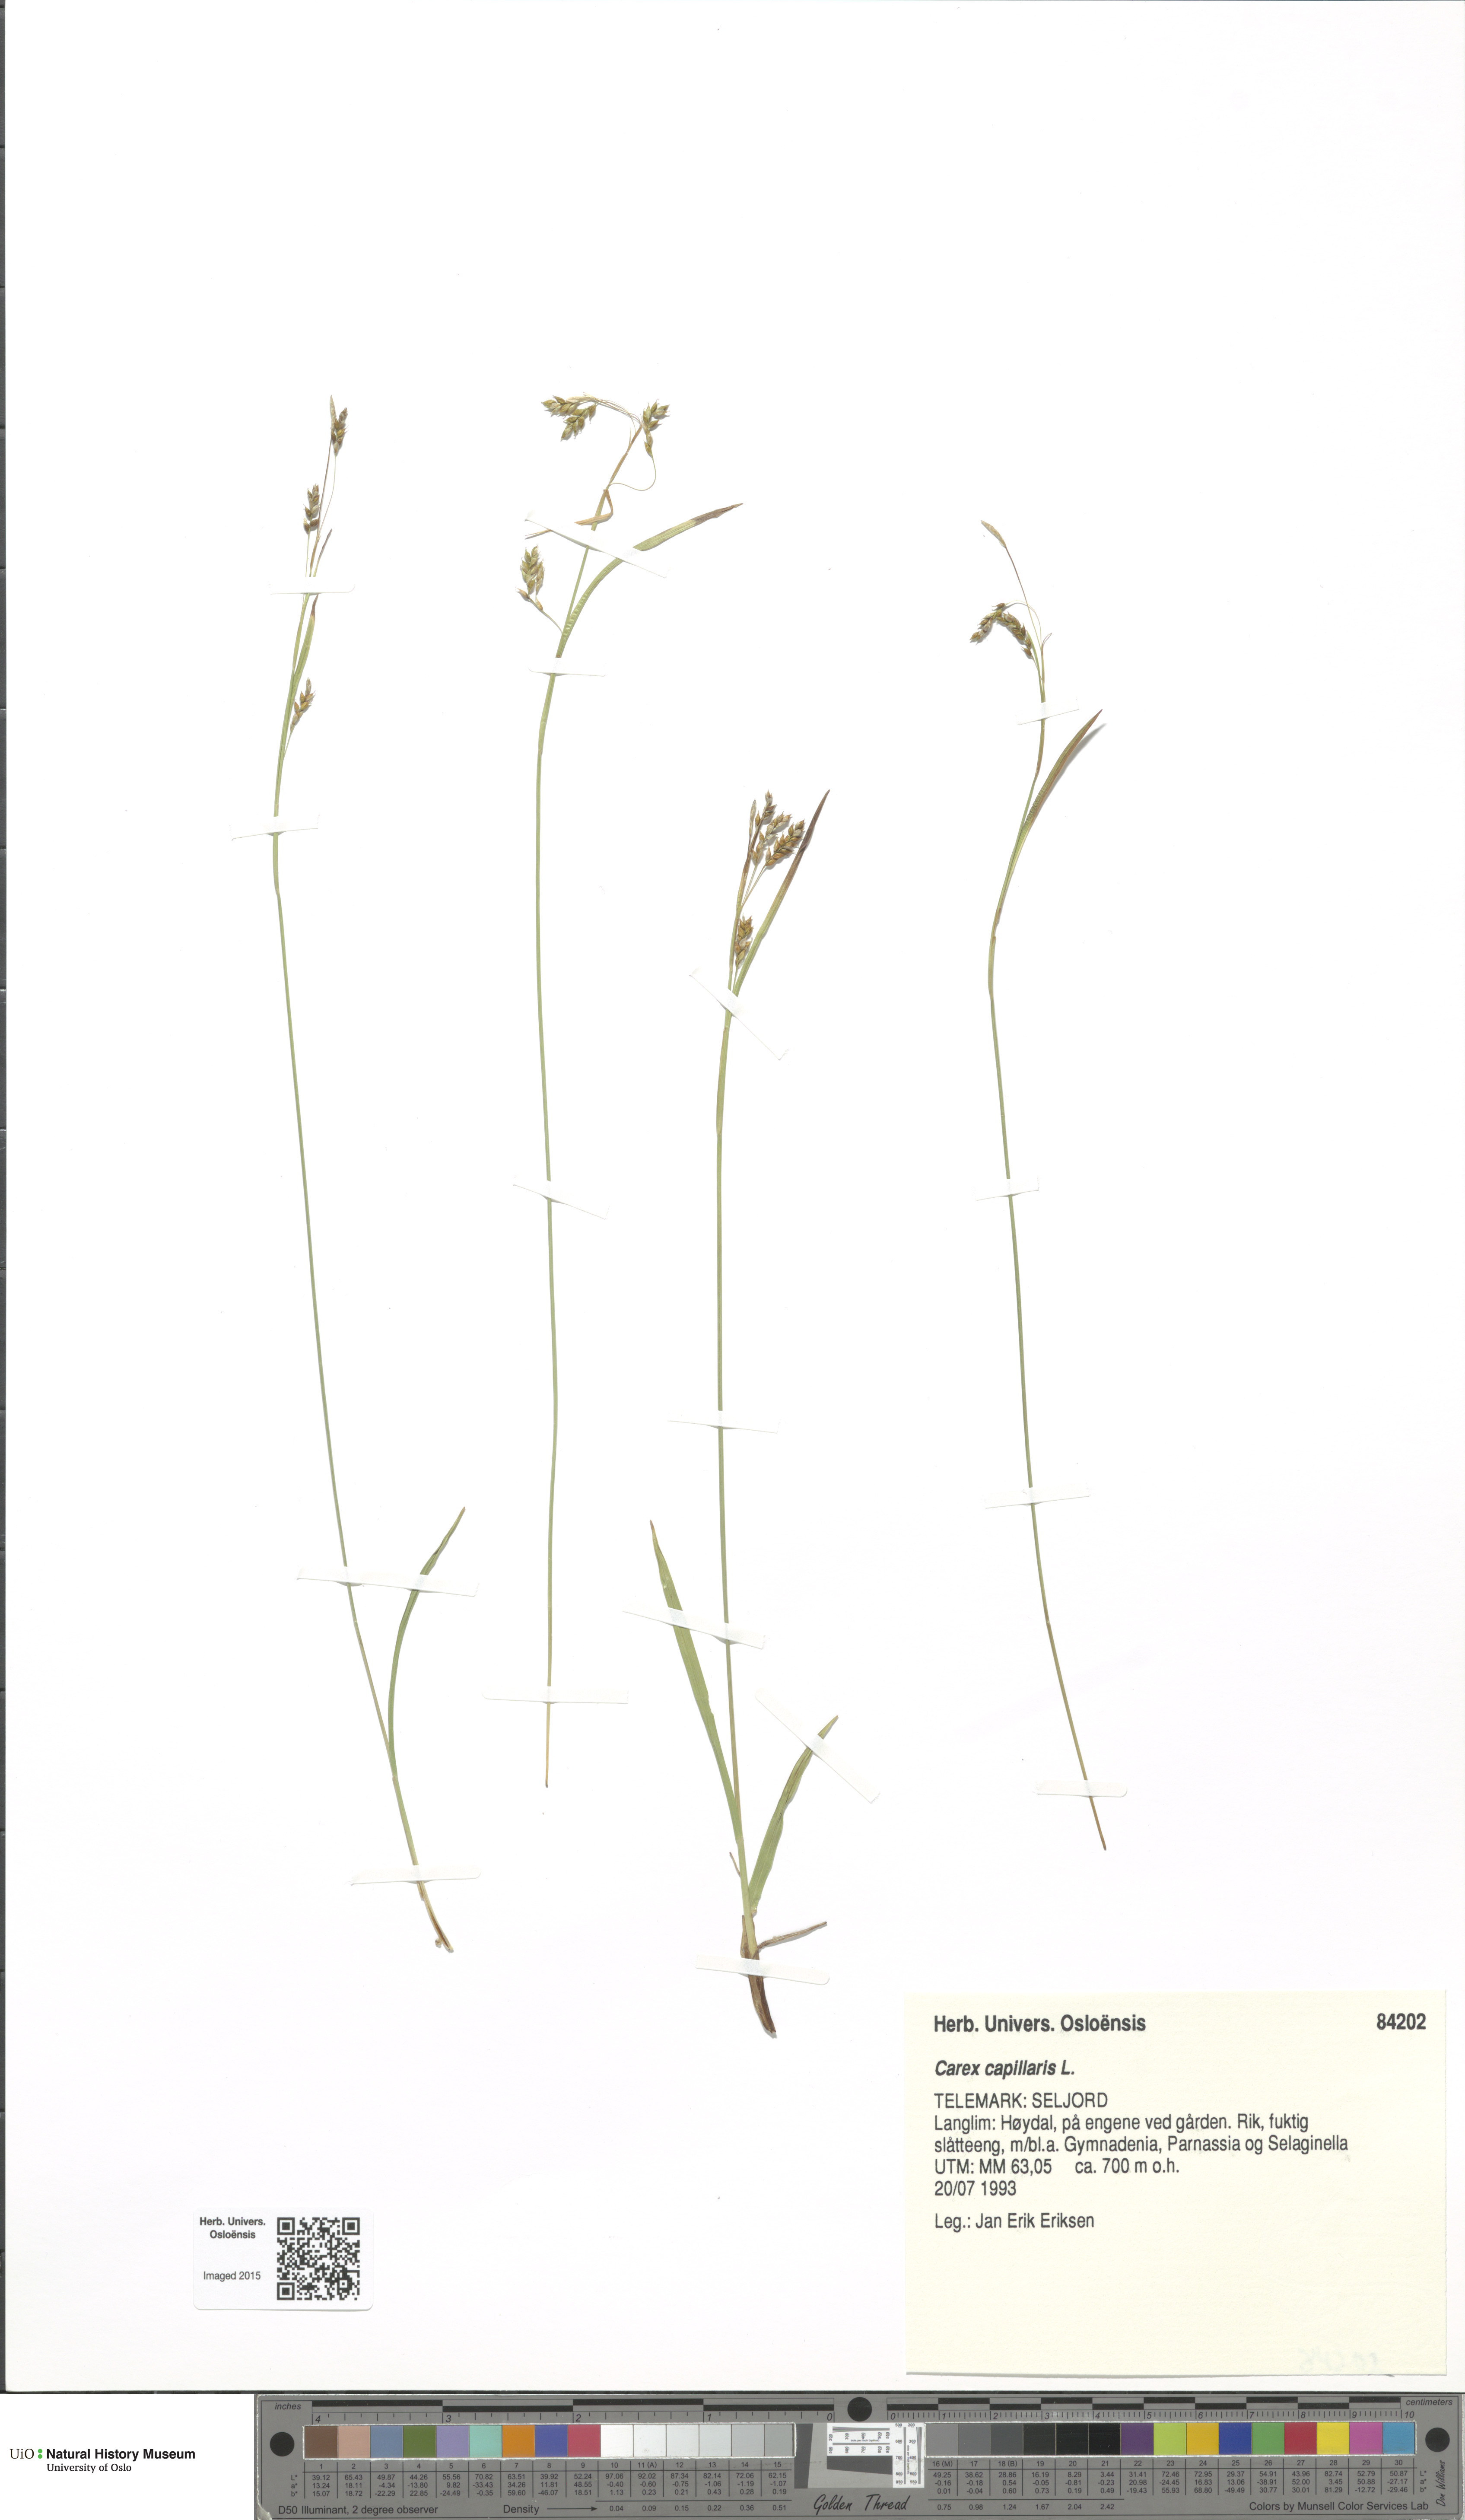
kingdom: Plantae
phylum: Tracheophyta
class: Liliopsida
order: Poales
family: Cyperaceae
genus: Carex
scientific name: Carex capillaris
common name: Hair sedge
